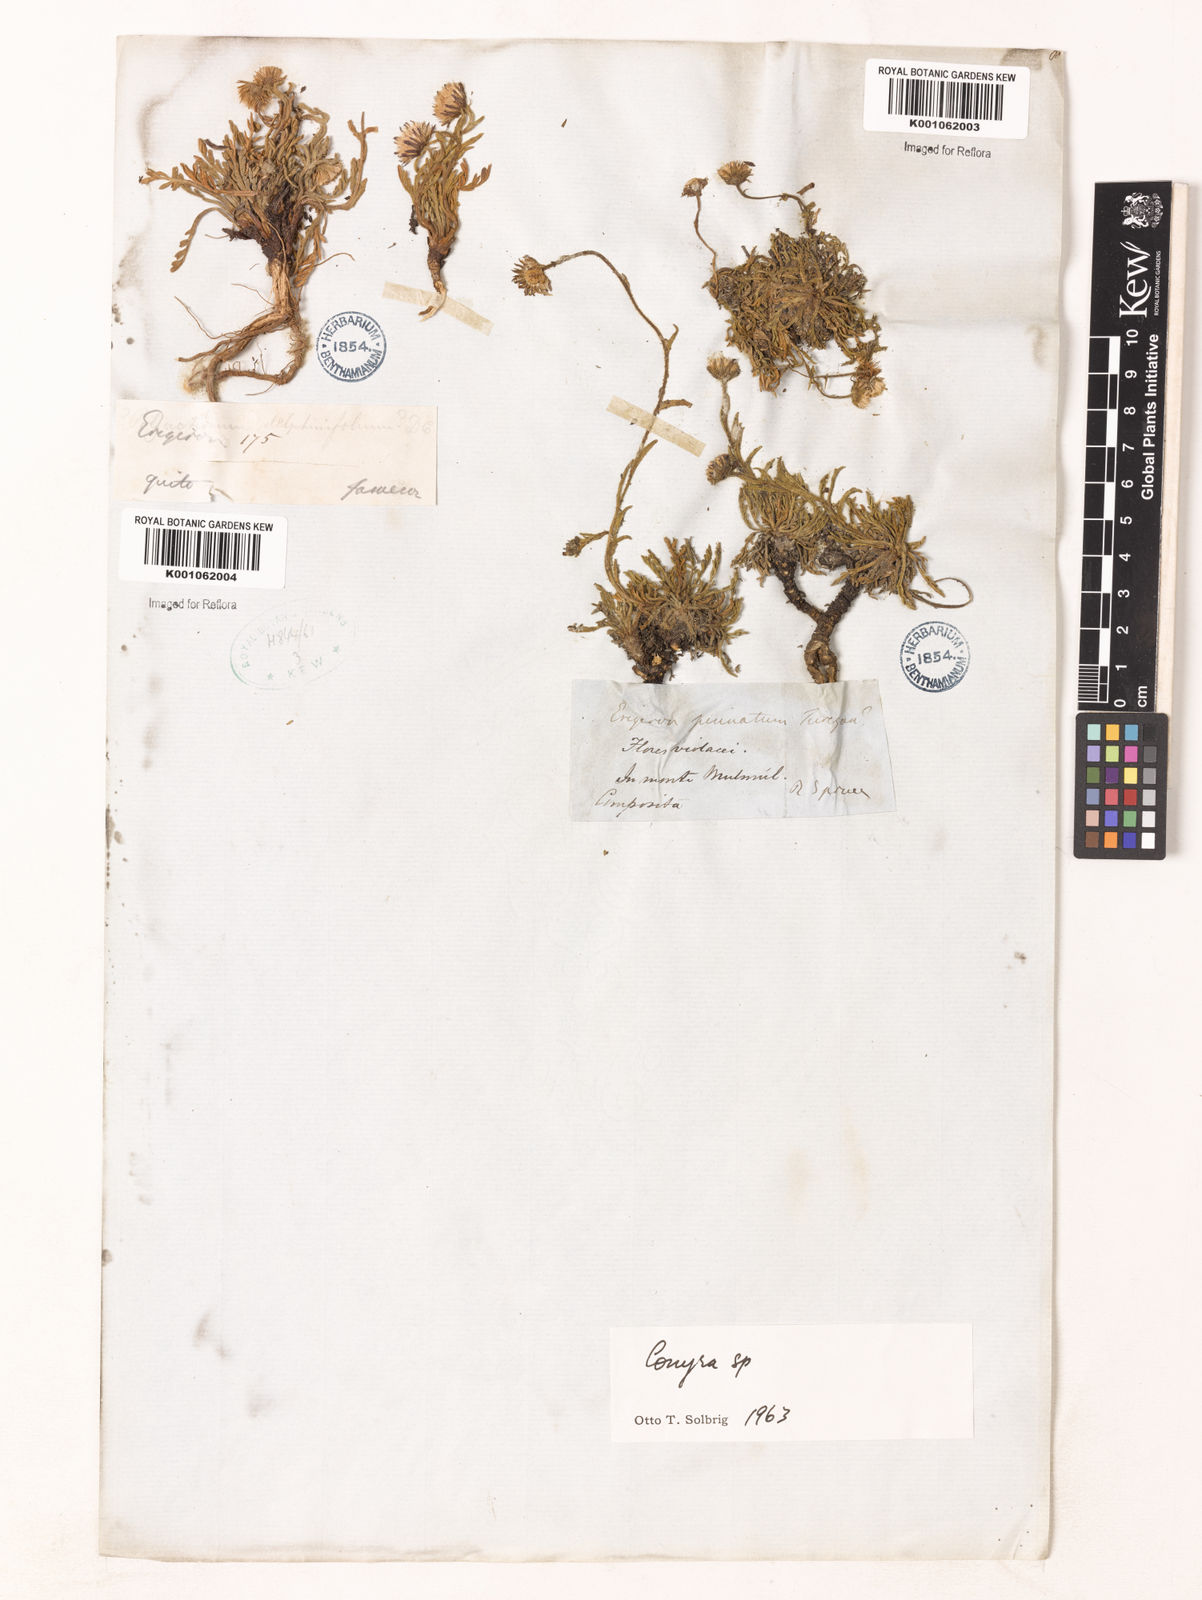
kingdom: Plantae
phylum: Tracheophyta
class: Magnoliopsida
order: Asterales
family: Asteraceae
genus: Erigeron
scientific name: Erigeron
